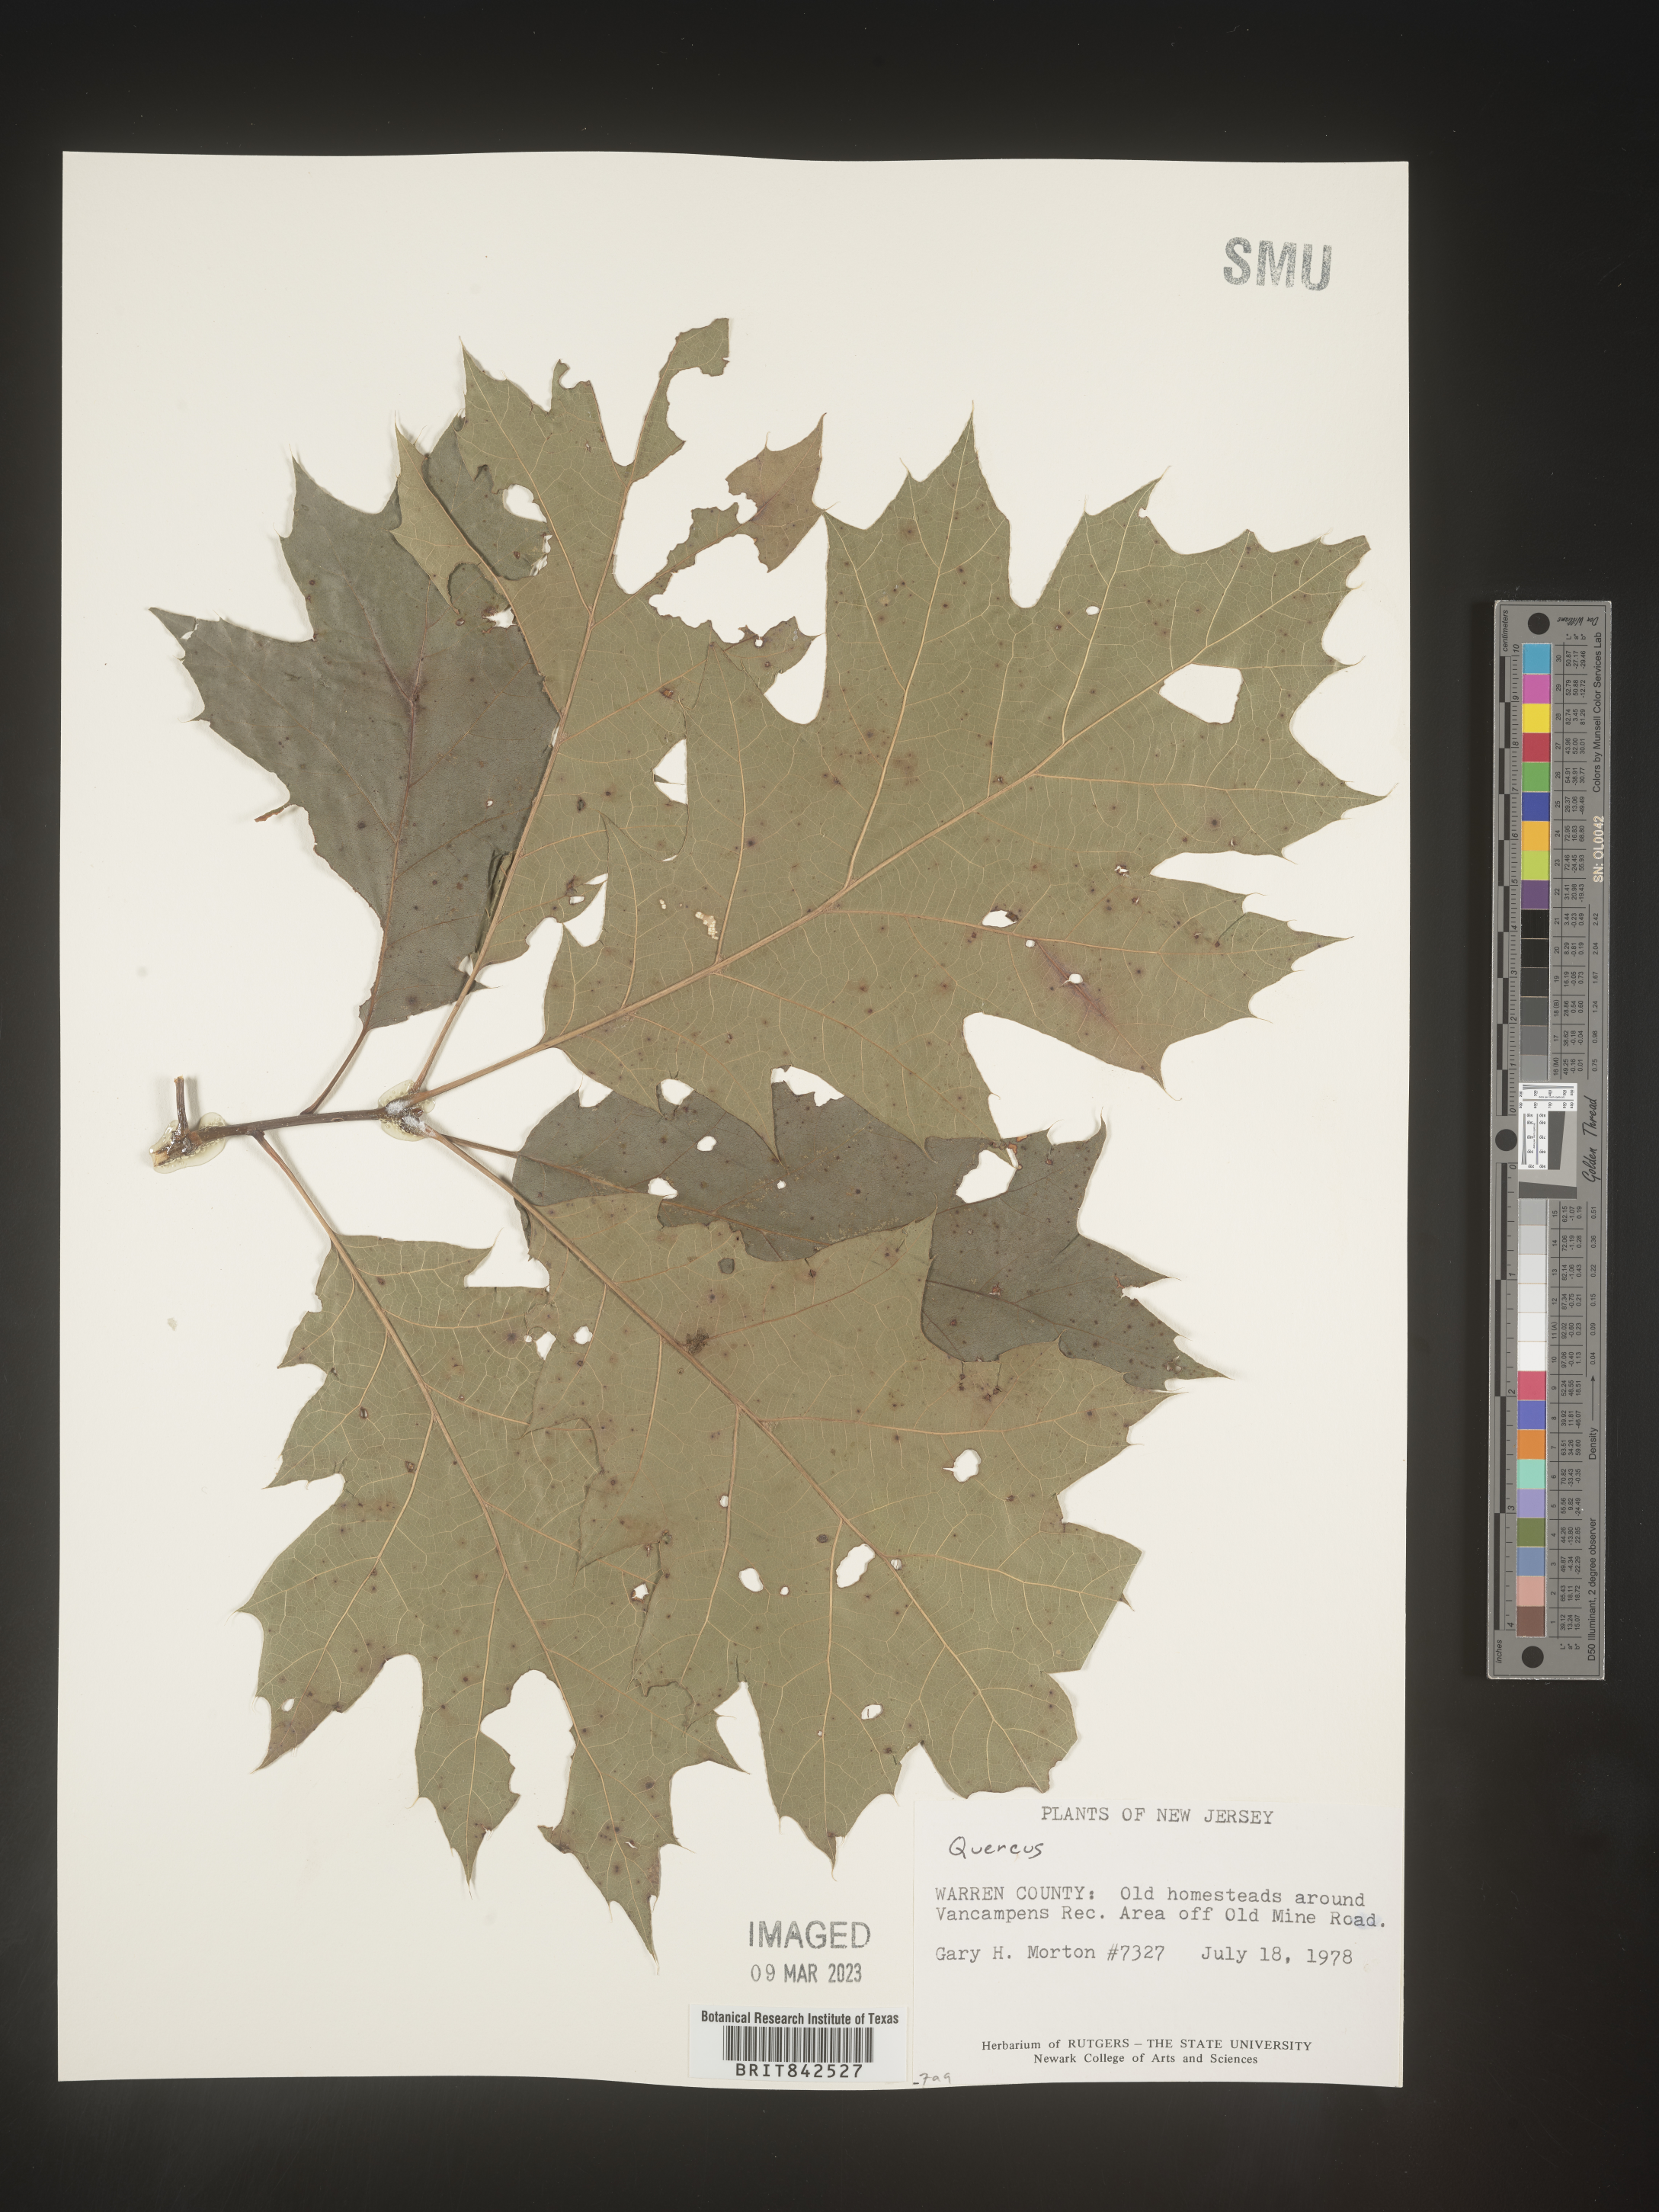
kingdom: Plantae
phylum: Tracheophyta
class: Magnoliopsida
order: Fagales
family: Fagaceae
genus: Quercus
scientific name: Quercus
